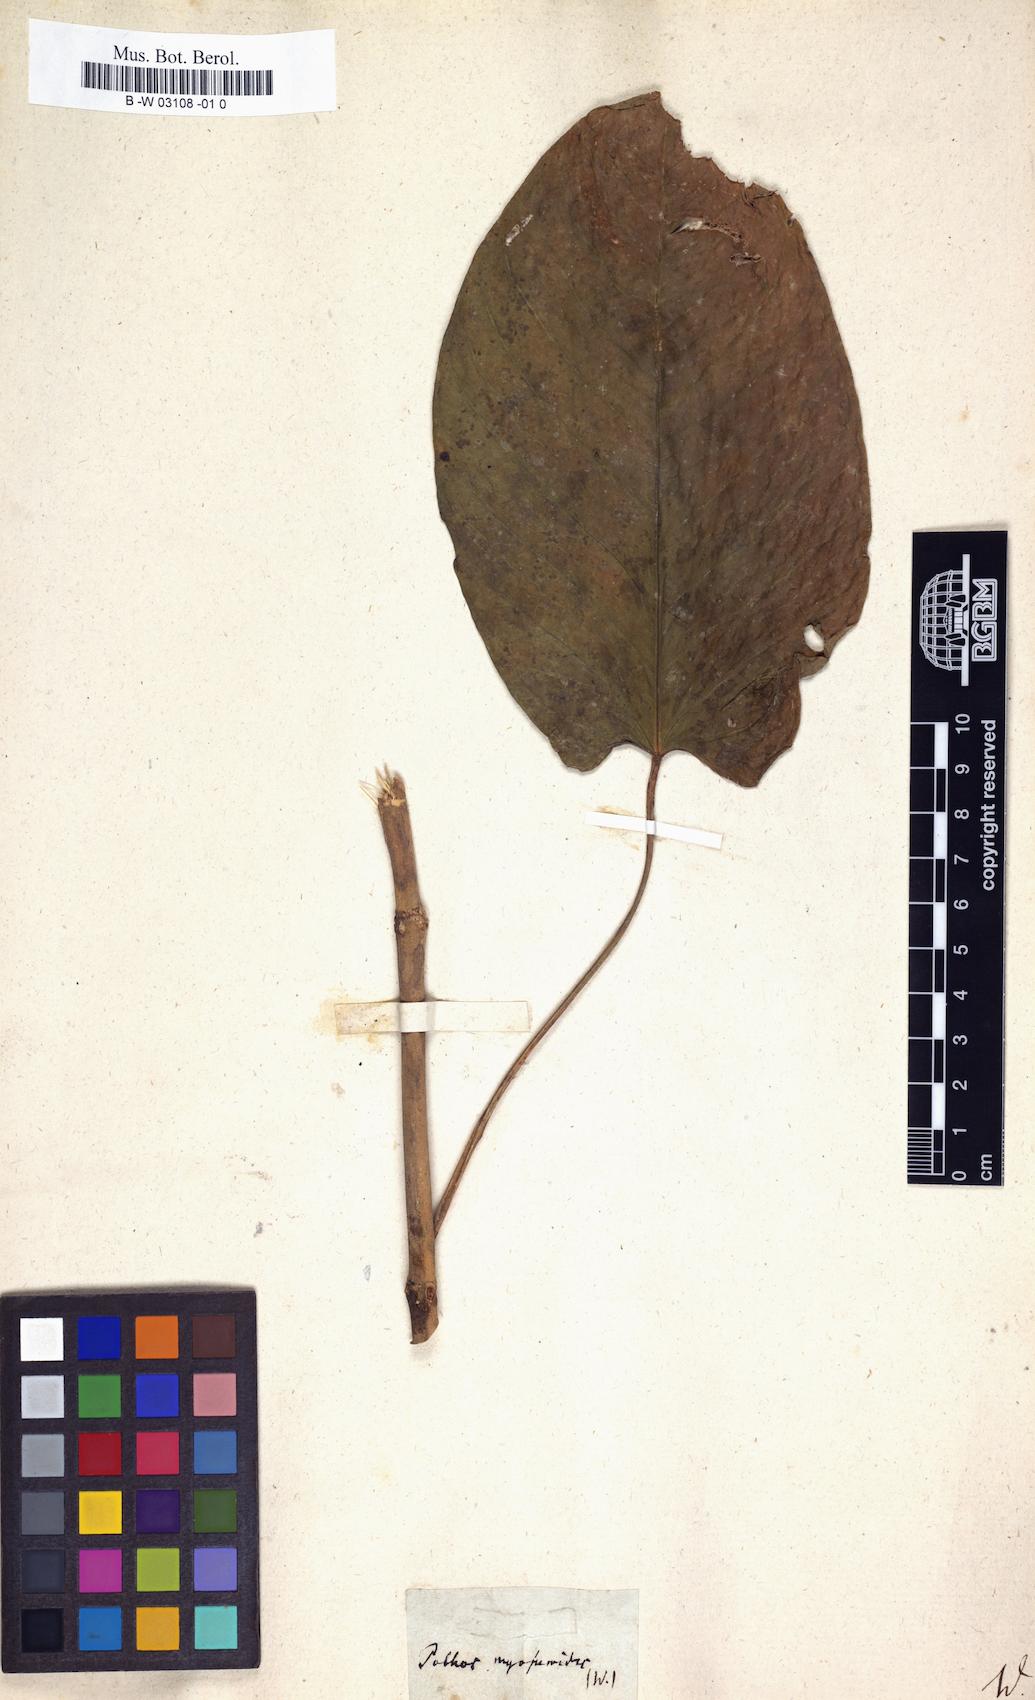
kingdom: Plantae
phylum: Tracheophyta
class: Liliopsida
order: Alismatales
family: Araceae
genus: Anthurium
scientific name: Anthurium myosuroides
